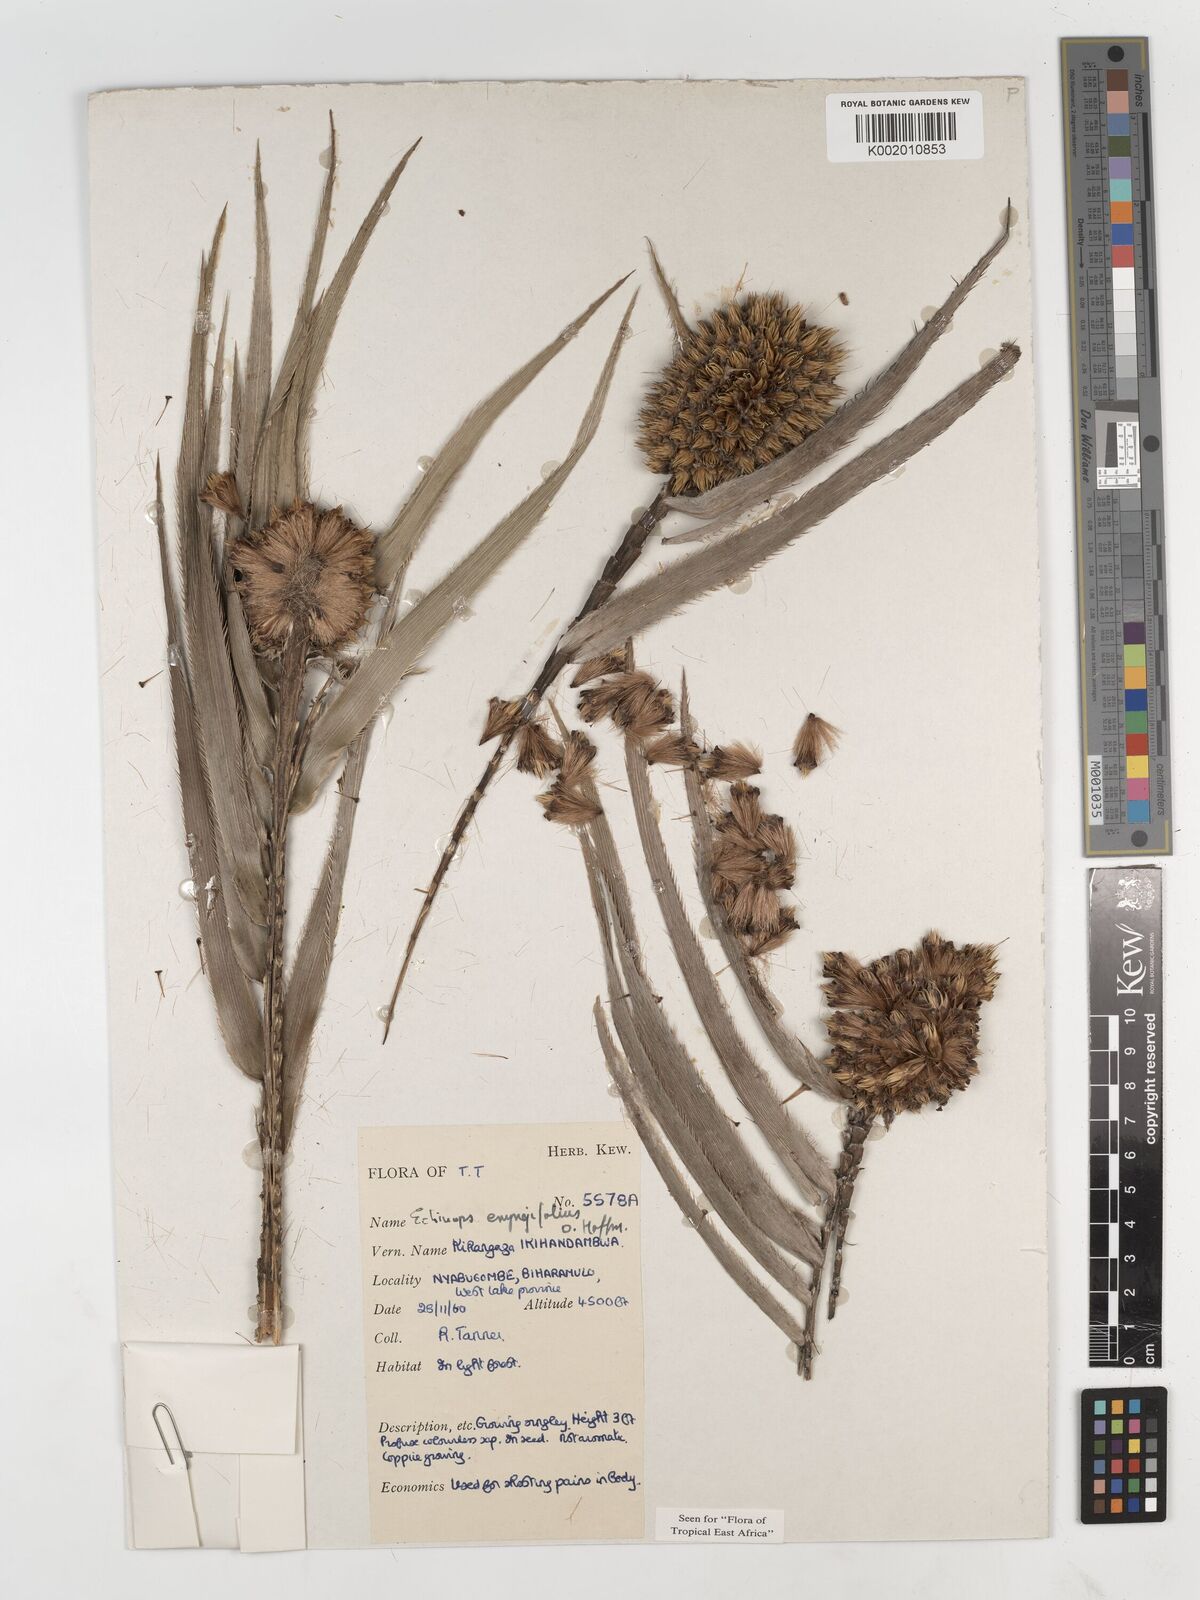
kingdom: Plantae
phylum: Tracheophyta
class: Magnoliopsida
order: Asterales
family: Asteraceae
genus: Echinops
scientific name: Echinops eryngiifolius
